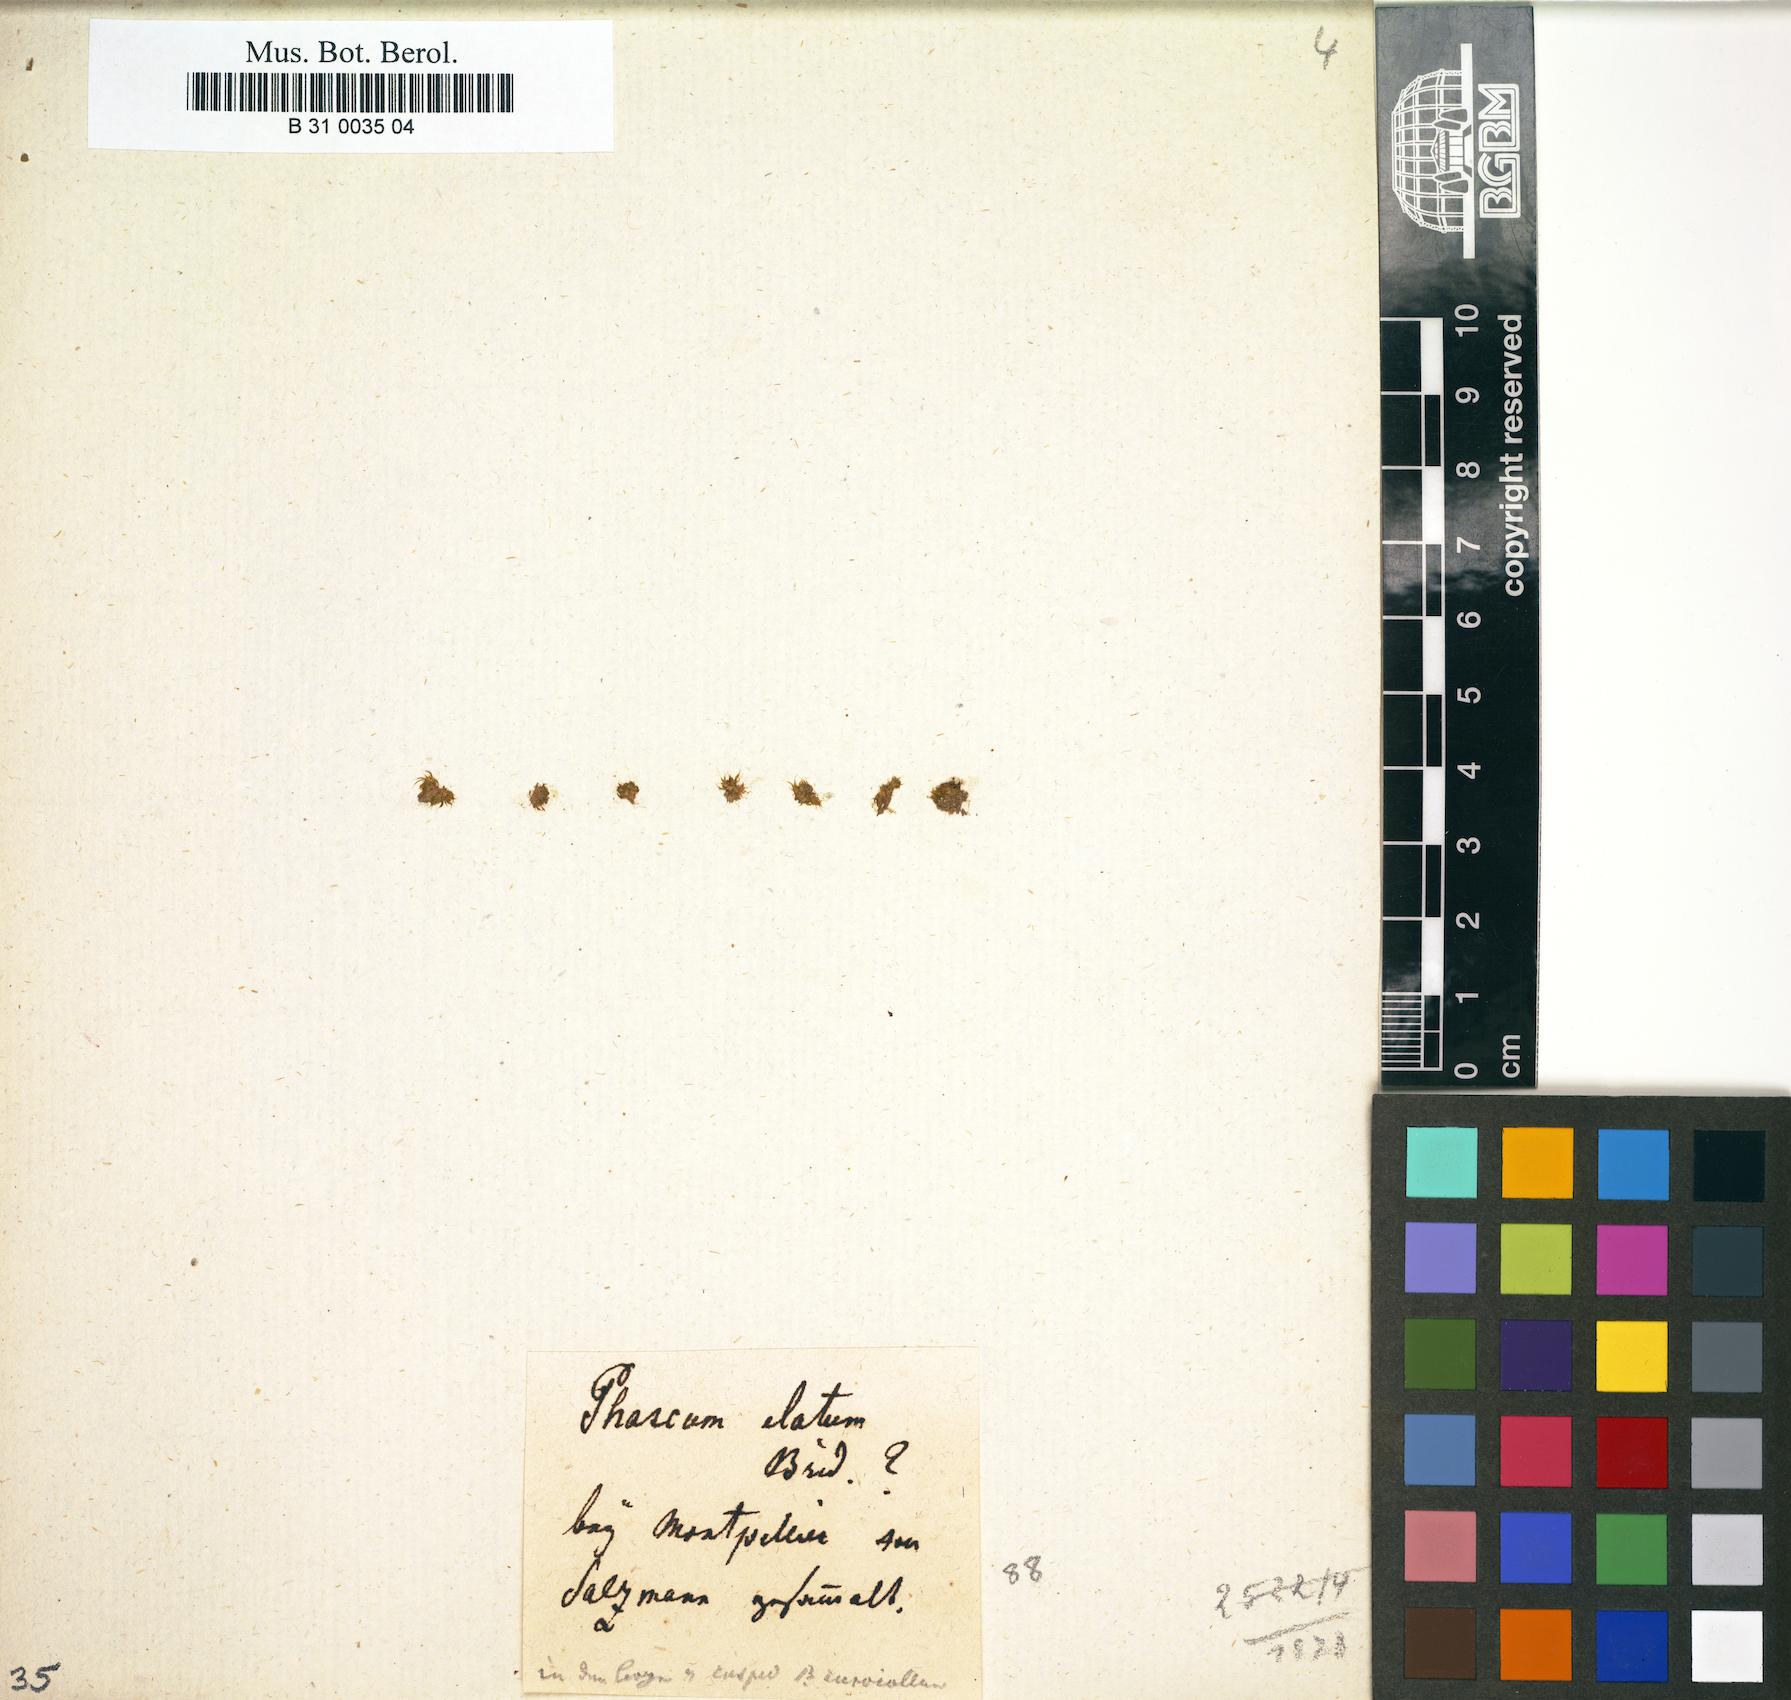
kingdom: Plantae
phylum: Bryophyta
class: Bryopsida
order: Pottiales
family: Pottiaceae
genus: Tortula
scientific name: Tortula acaulon
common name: Cuspidate earth moss
